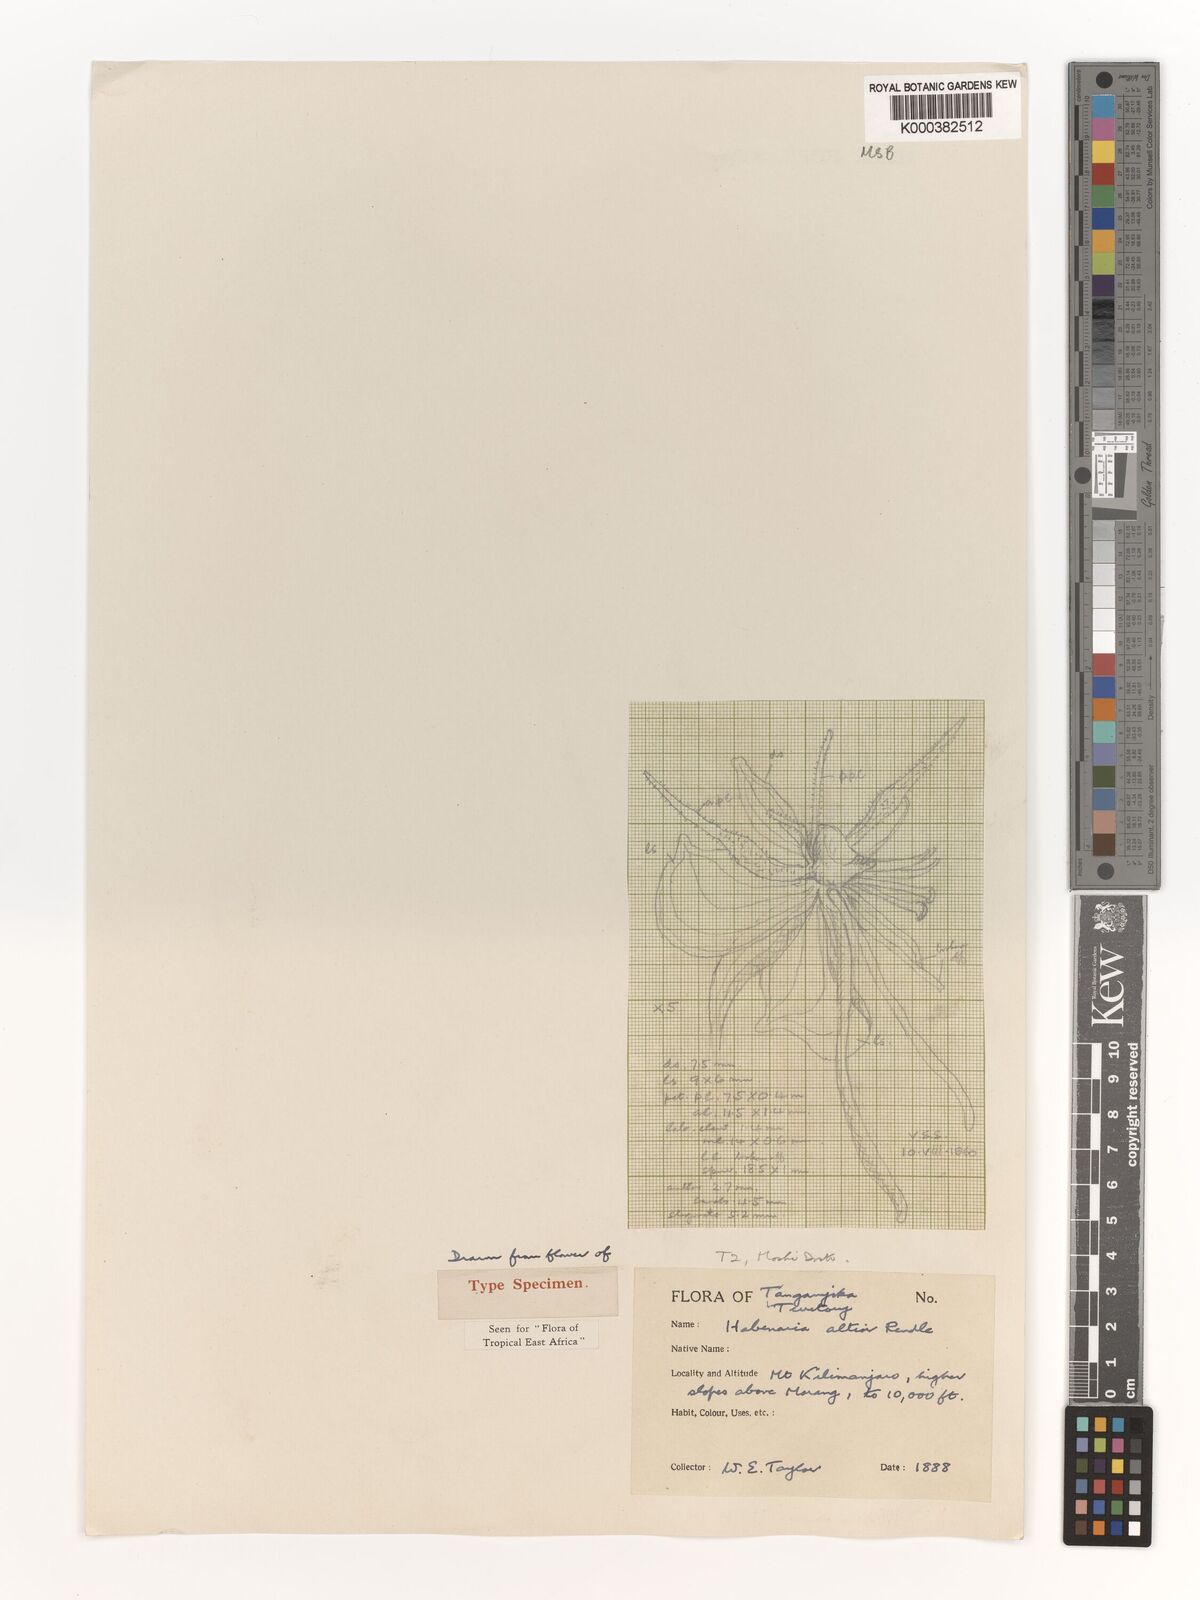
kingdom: Plantae
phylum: Tracheophyta
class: Liliopsida
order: Asparagales
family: Orchidaceae
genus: Habenaria
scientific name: Habenaria altior
